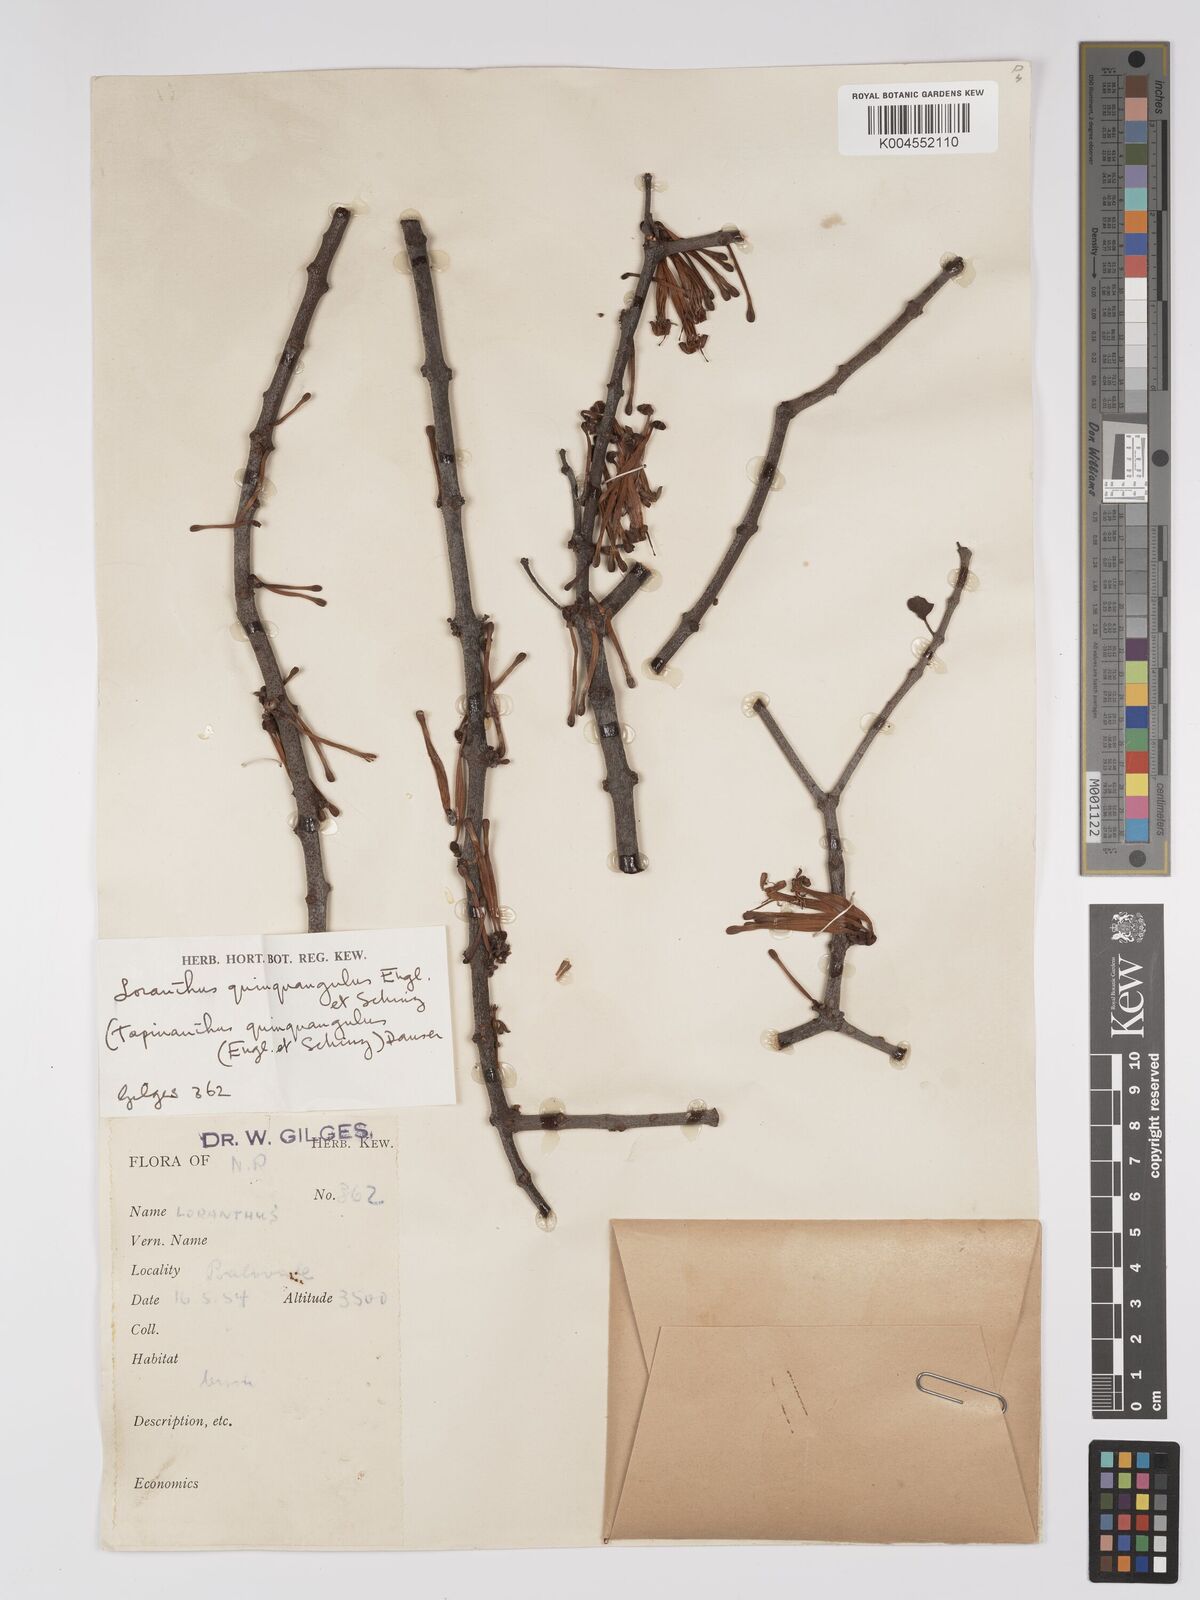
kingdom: Plantae
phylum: Tracheophyta
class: Magnoliopsida
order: Santalales
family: Loranthaceae
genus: Tapinanthus
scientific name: Tapinanthus forbesii
